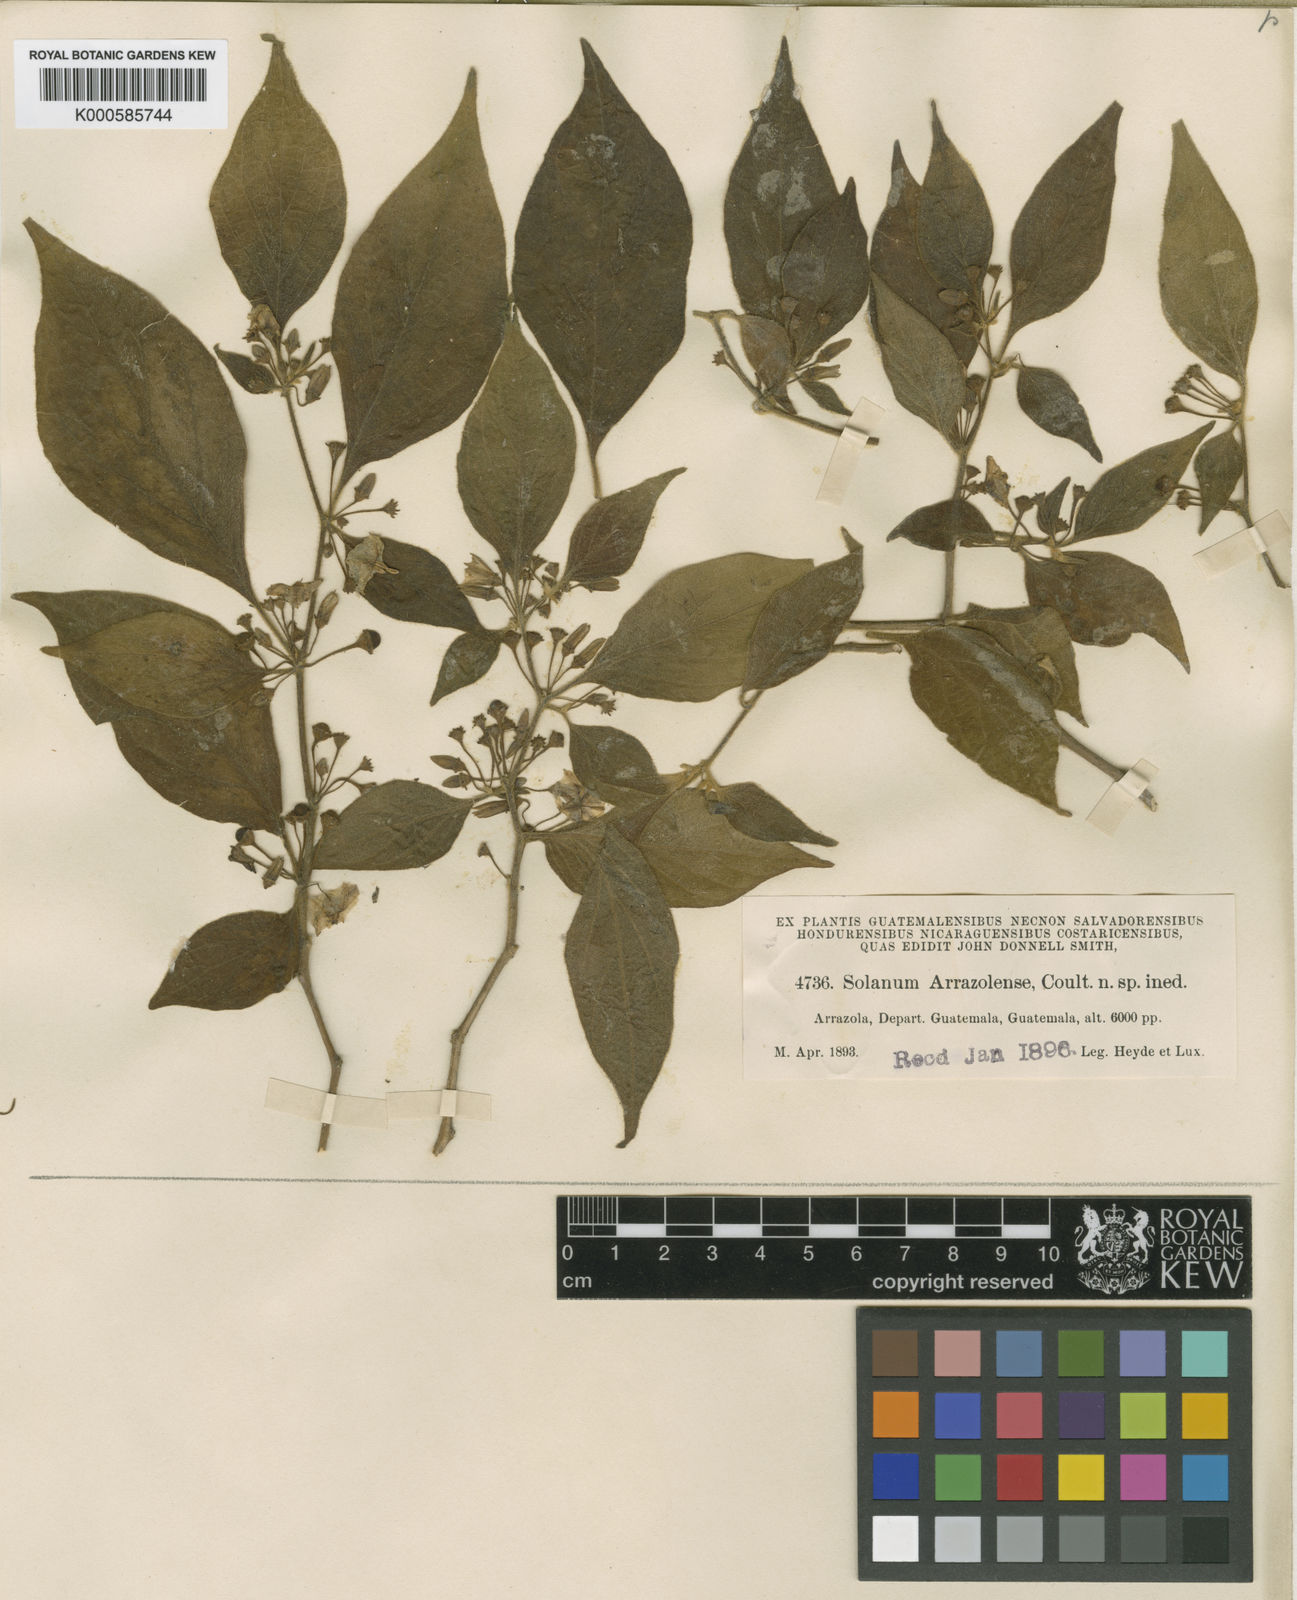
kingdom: Plantae
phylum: Tracheophyta
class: Magnoliopsida
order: Solanales
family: Solanaceae
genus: Lycianthes
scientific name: Lycianthes arrazolensis
